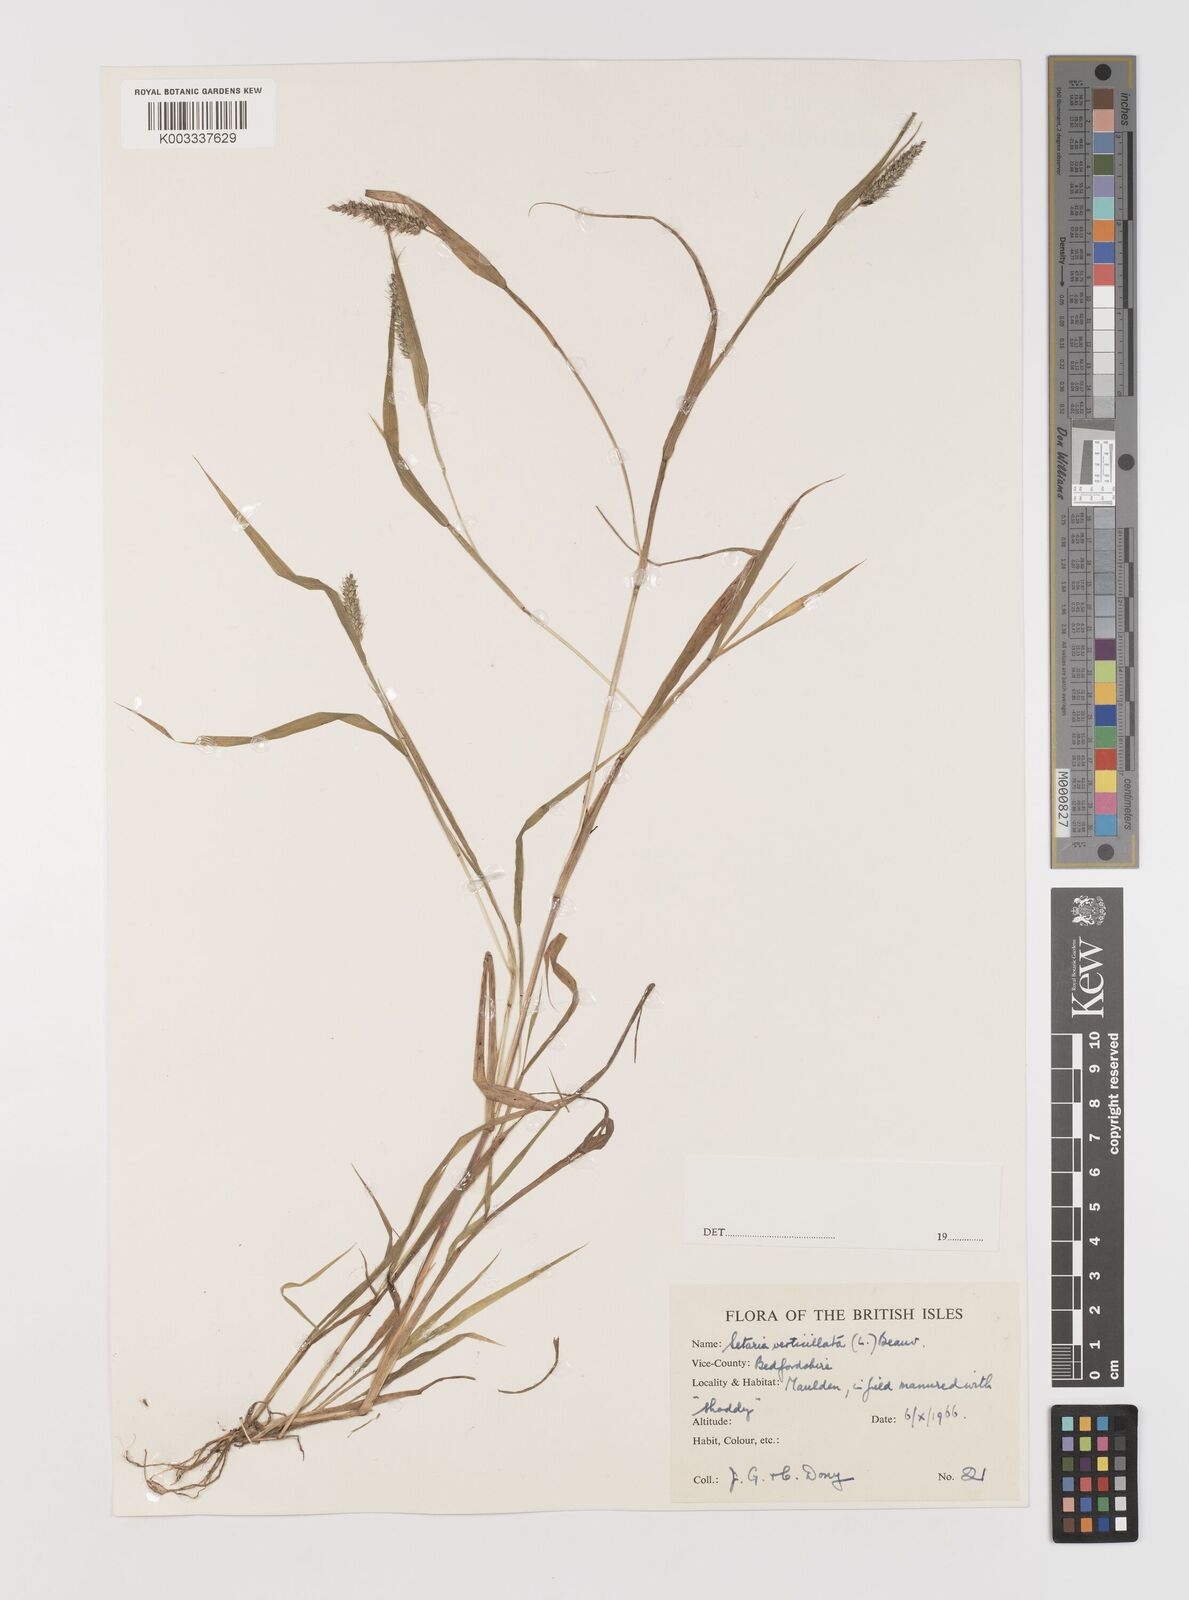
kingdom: Plantae
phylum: Tracheophyta
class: Liliopsida
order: Poales
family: Poaceae
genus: Setaria
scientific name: Setaria verticillata
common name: Hooked bristlegrass
